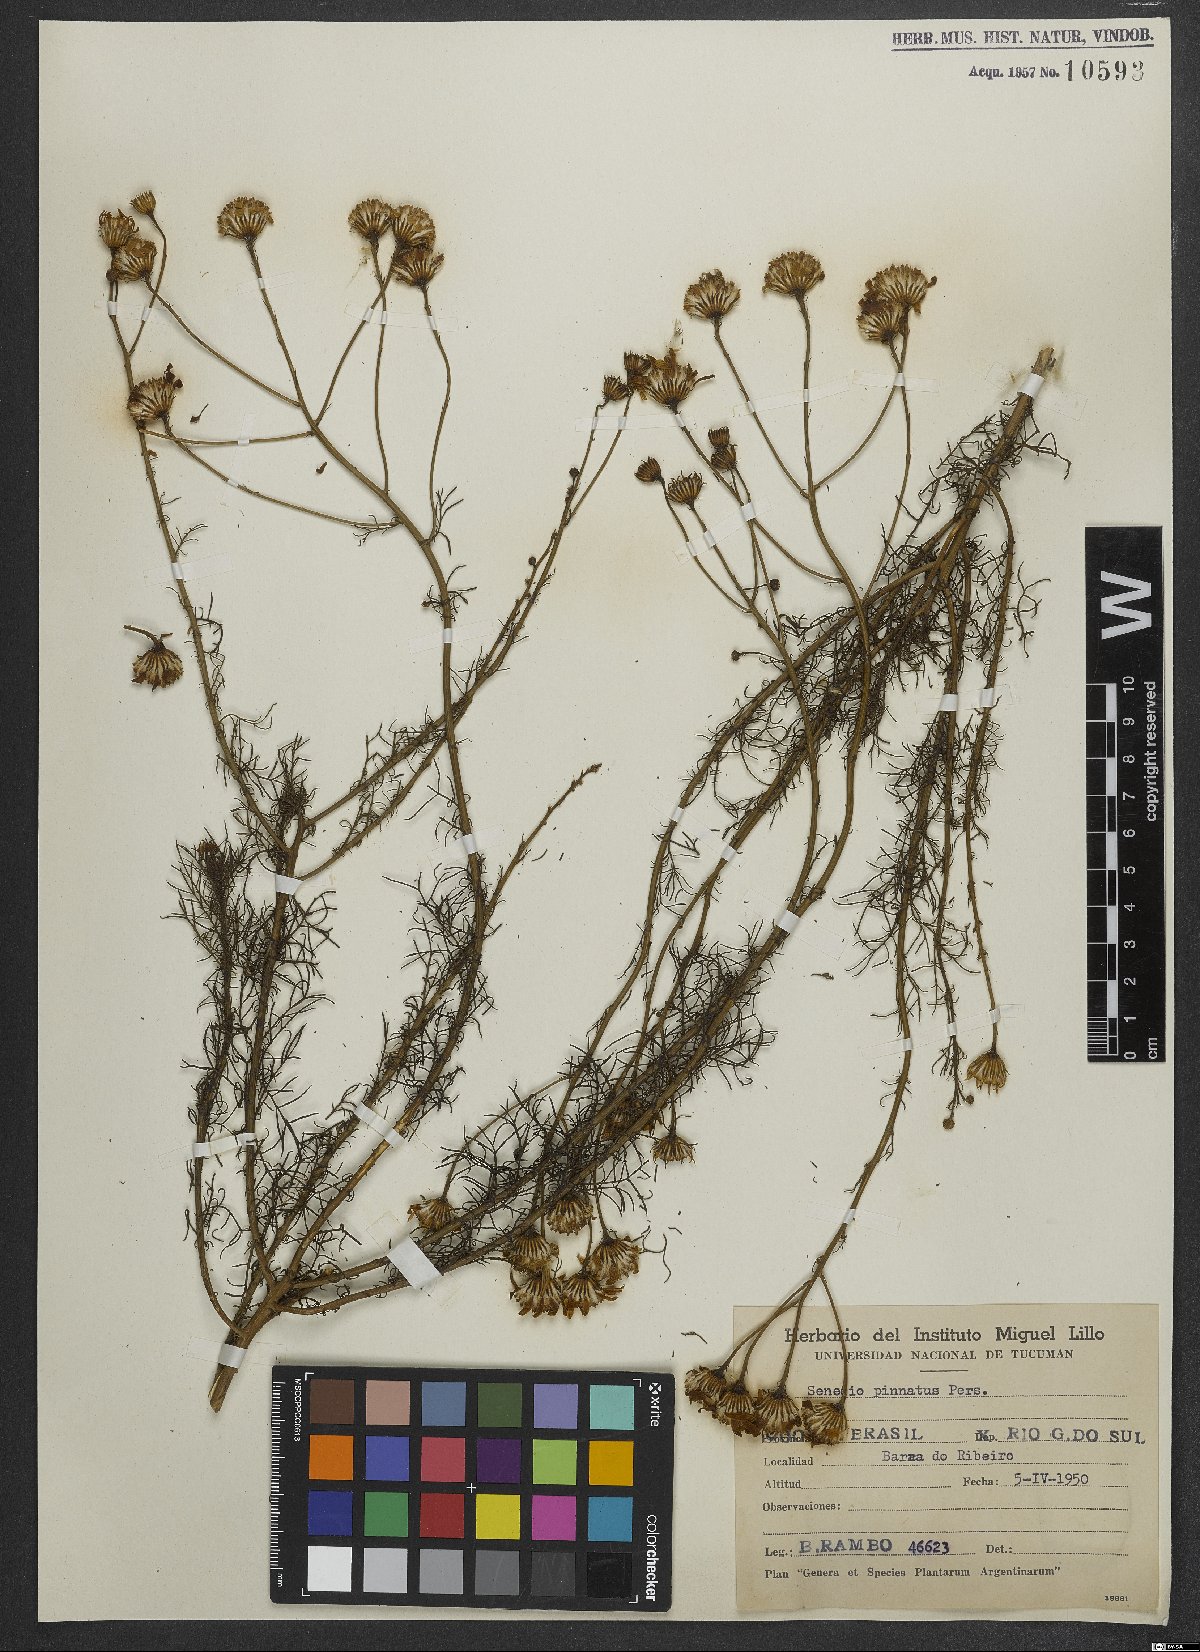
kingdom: Plantae
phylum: Tracheophyta
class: Magnoliopsida
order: Asterales
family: Asteraceae
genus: Senecio
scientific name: Senecio platensis
